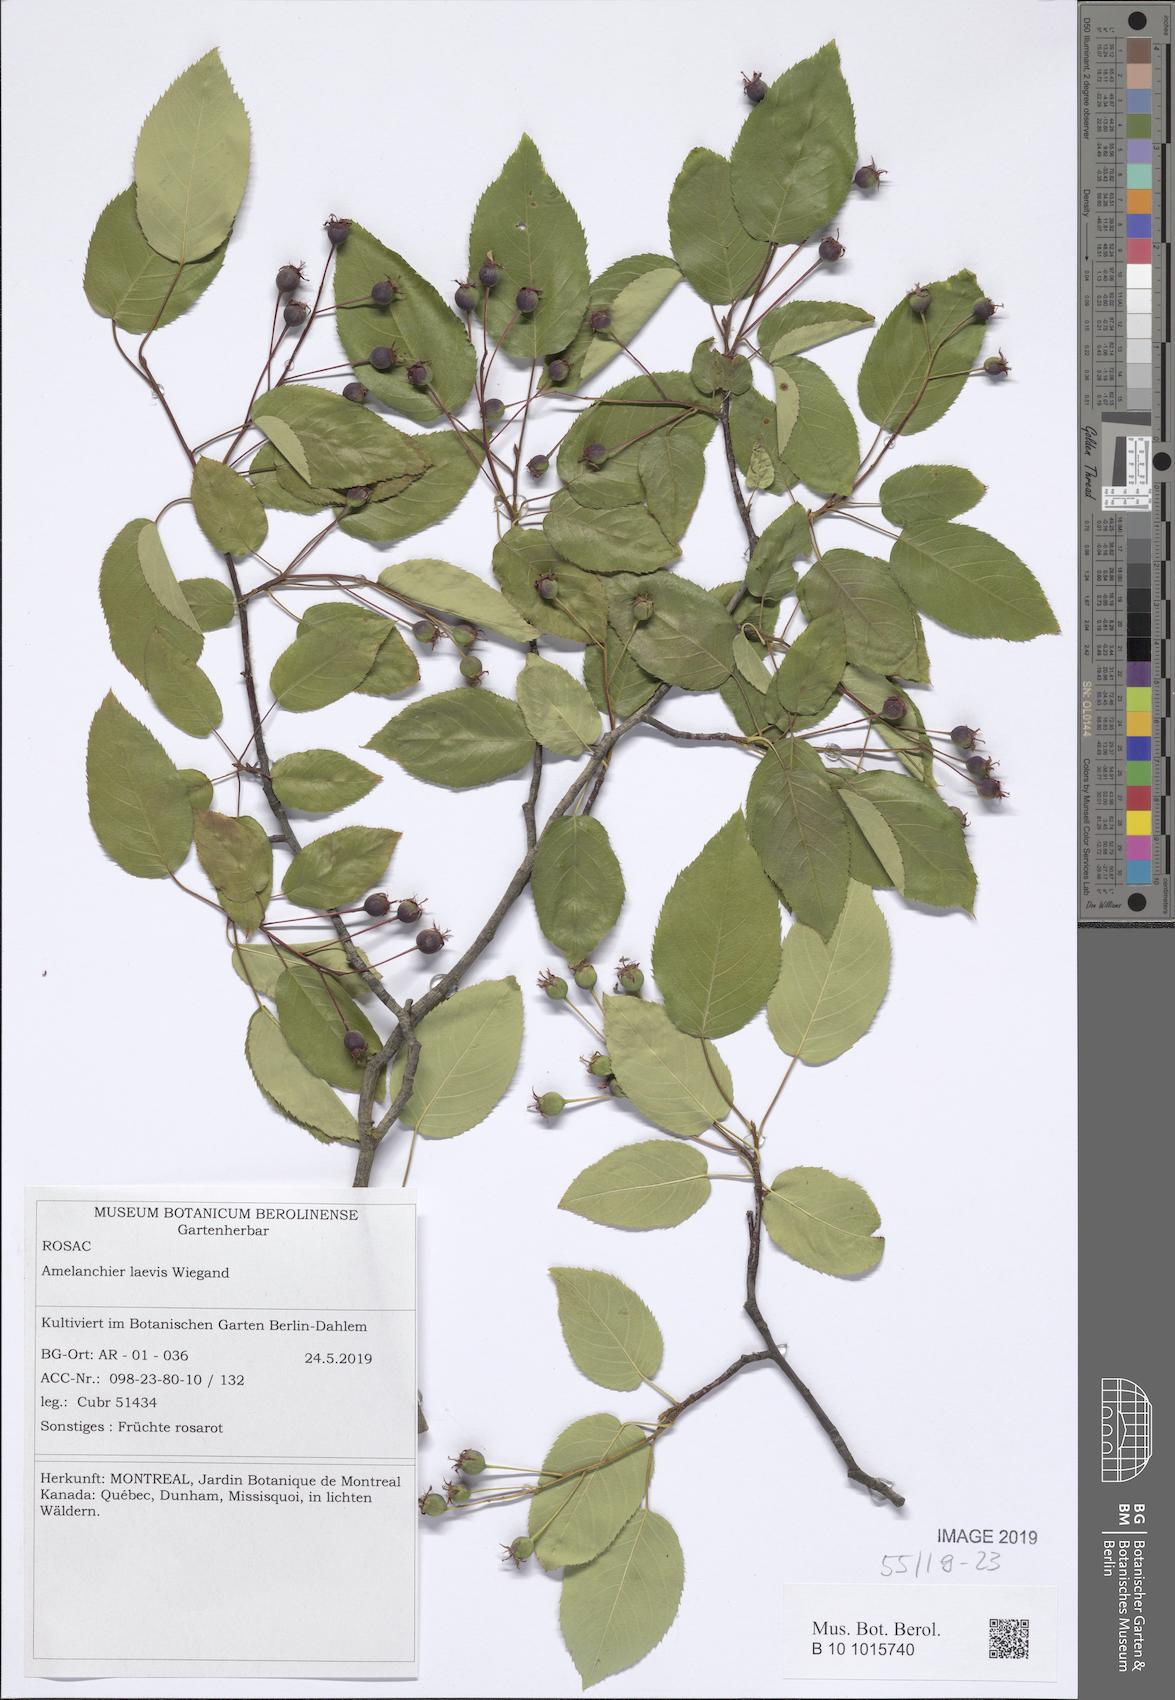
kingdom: Plantae
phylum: Tracheophyta
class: Magnoliopsida
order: Rosales
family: Rosaceae
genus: Amelanchier
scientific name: Amelanchier laevis
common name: Allegheny serviceberry
